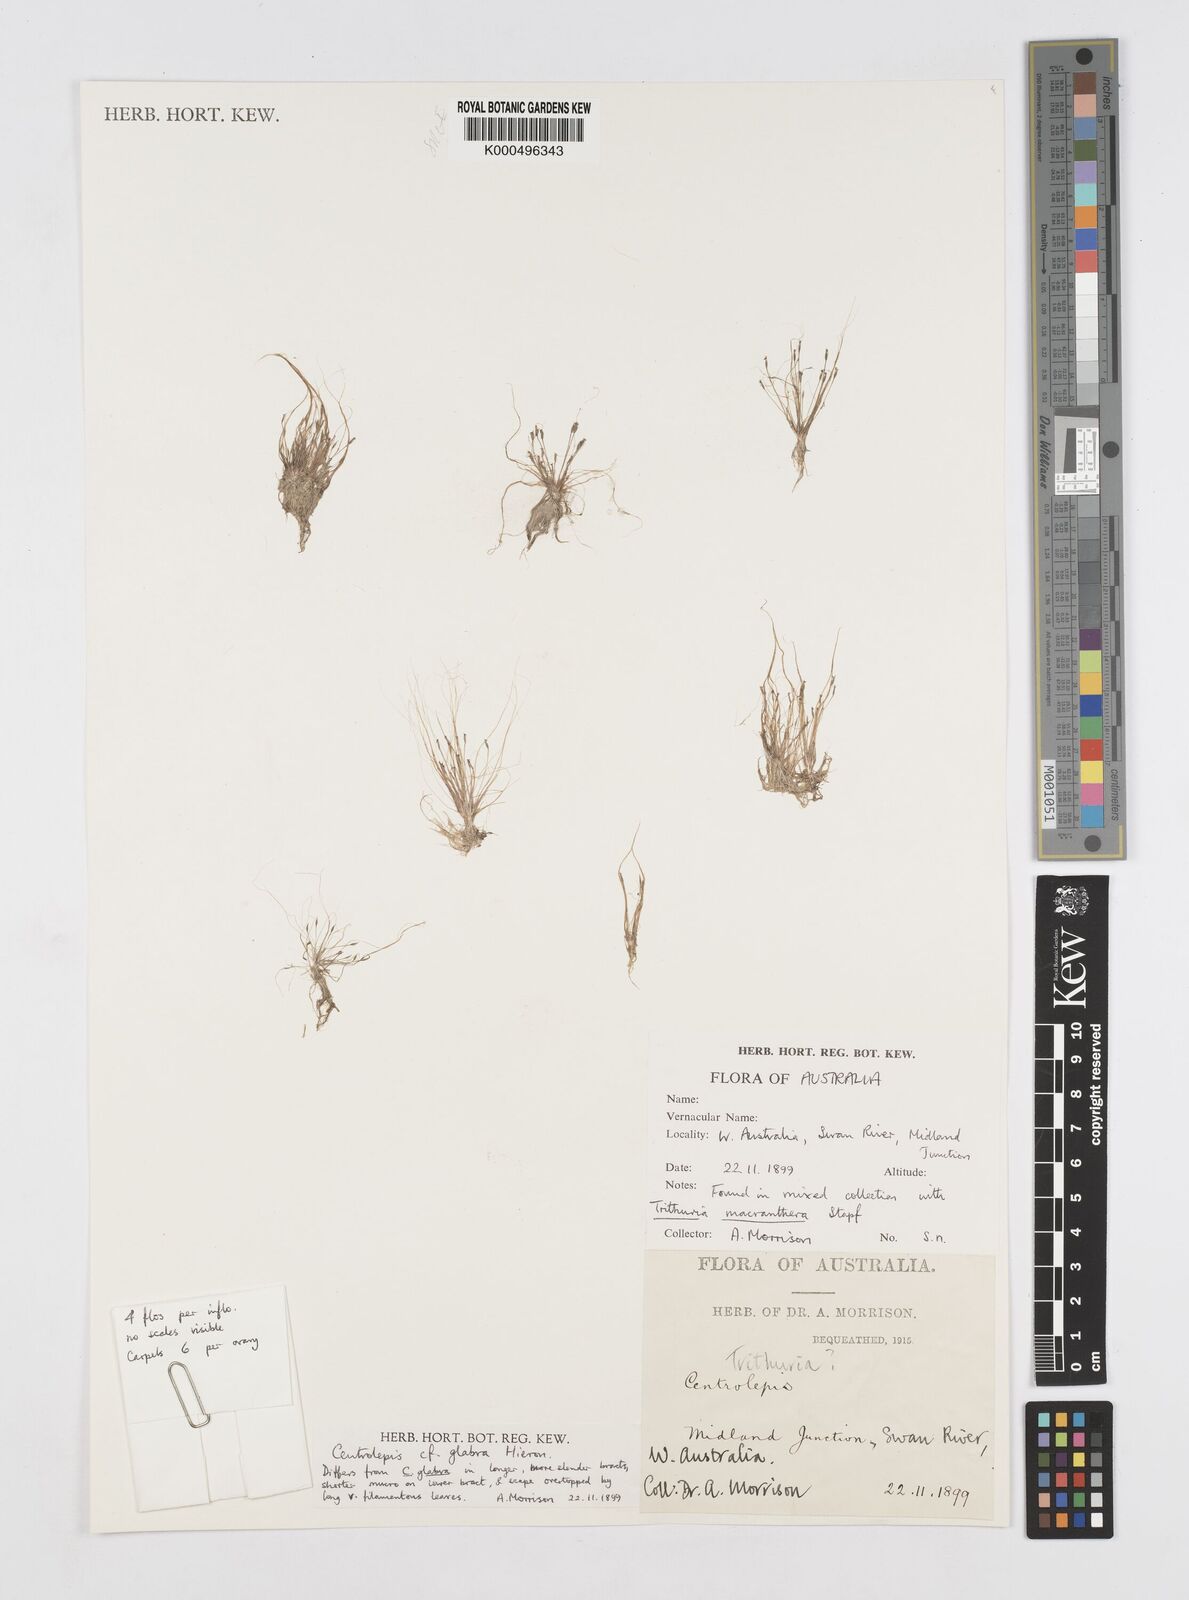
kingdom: Plantae
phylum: Tracheophyta
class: Liliopsida
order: Poales
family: Restionaceae
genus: Centrolepis
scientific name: Centrolepis glabra
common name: Smooth centrolepis
